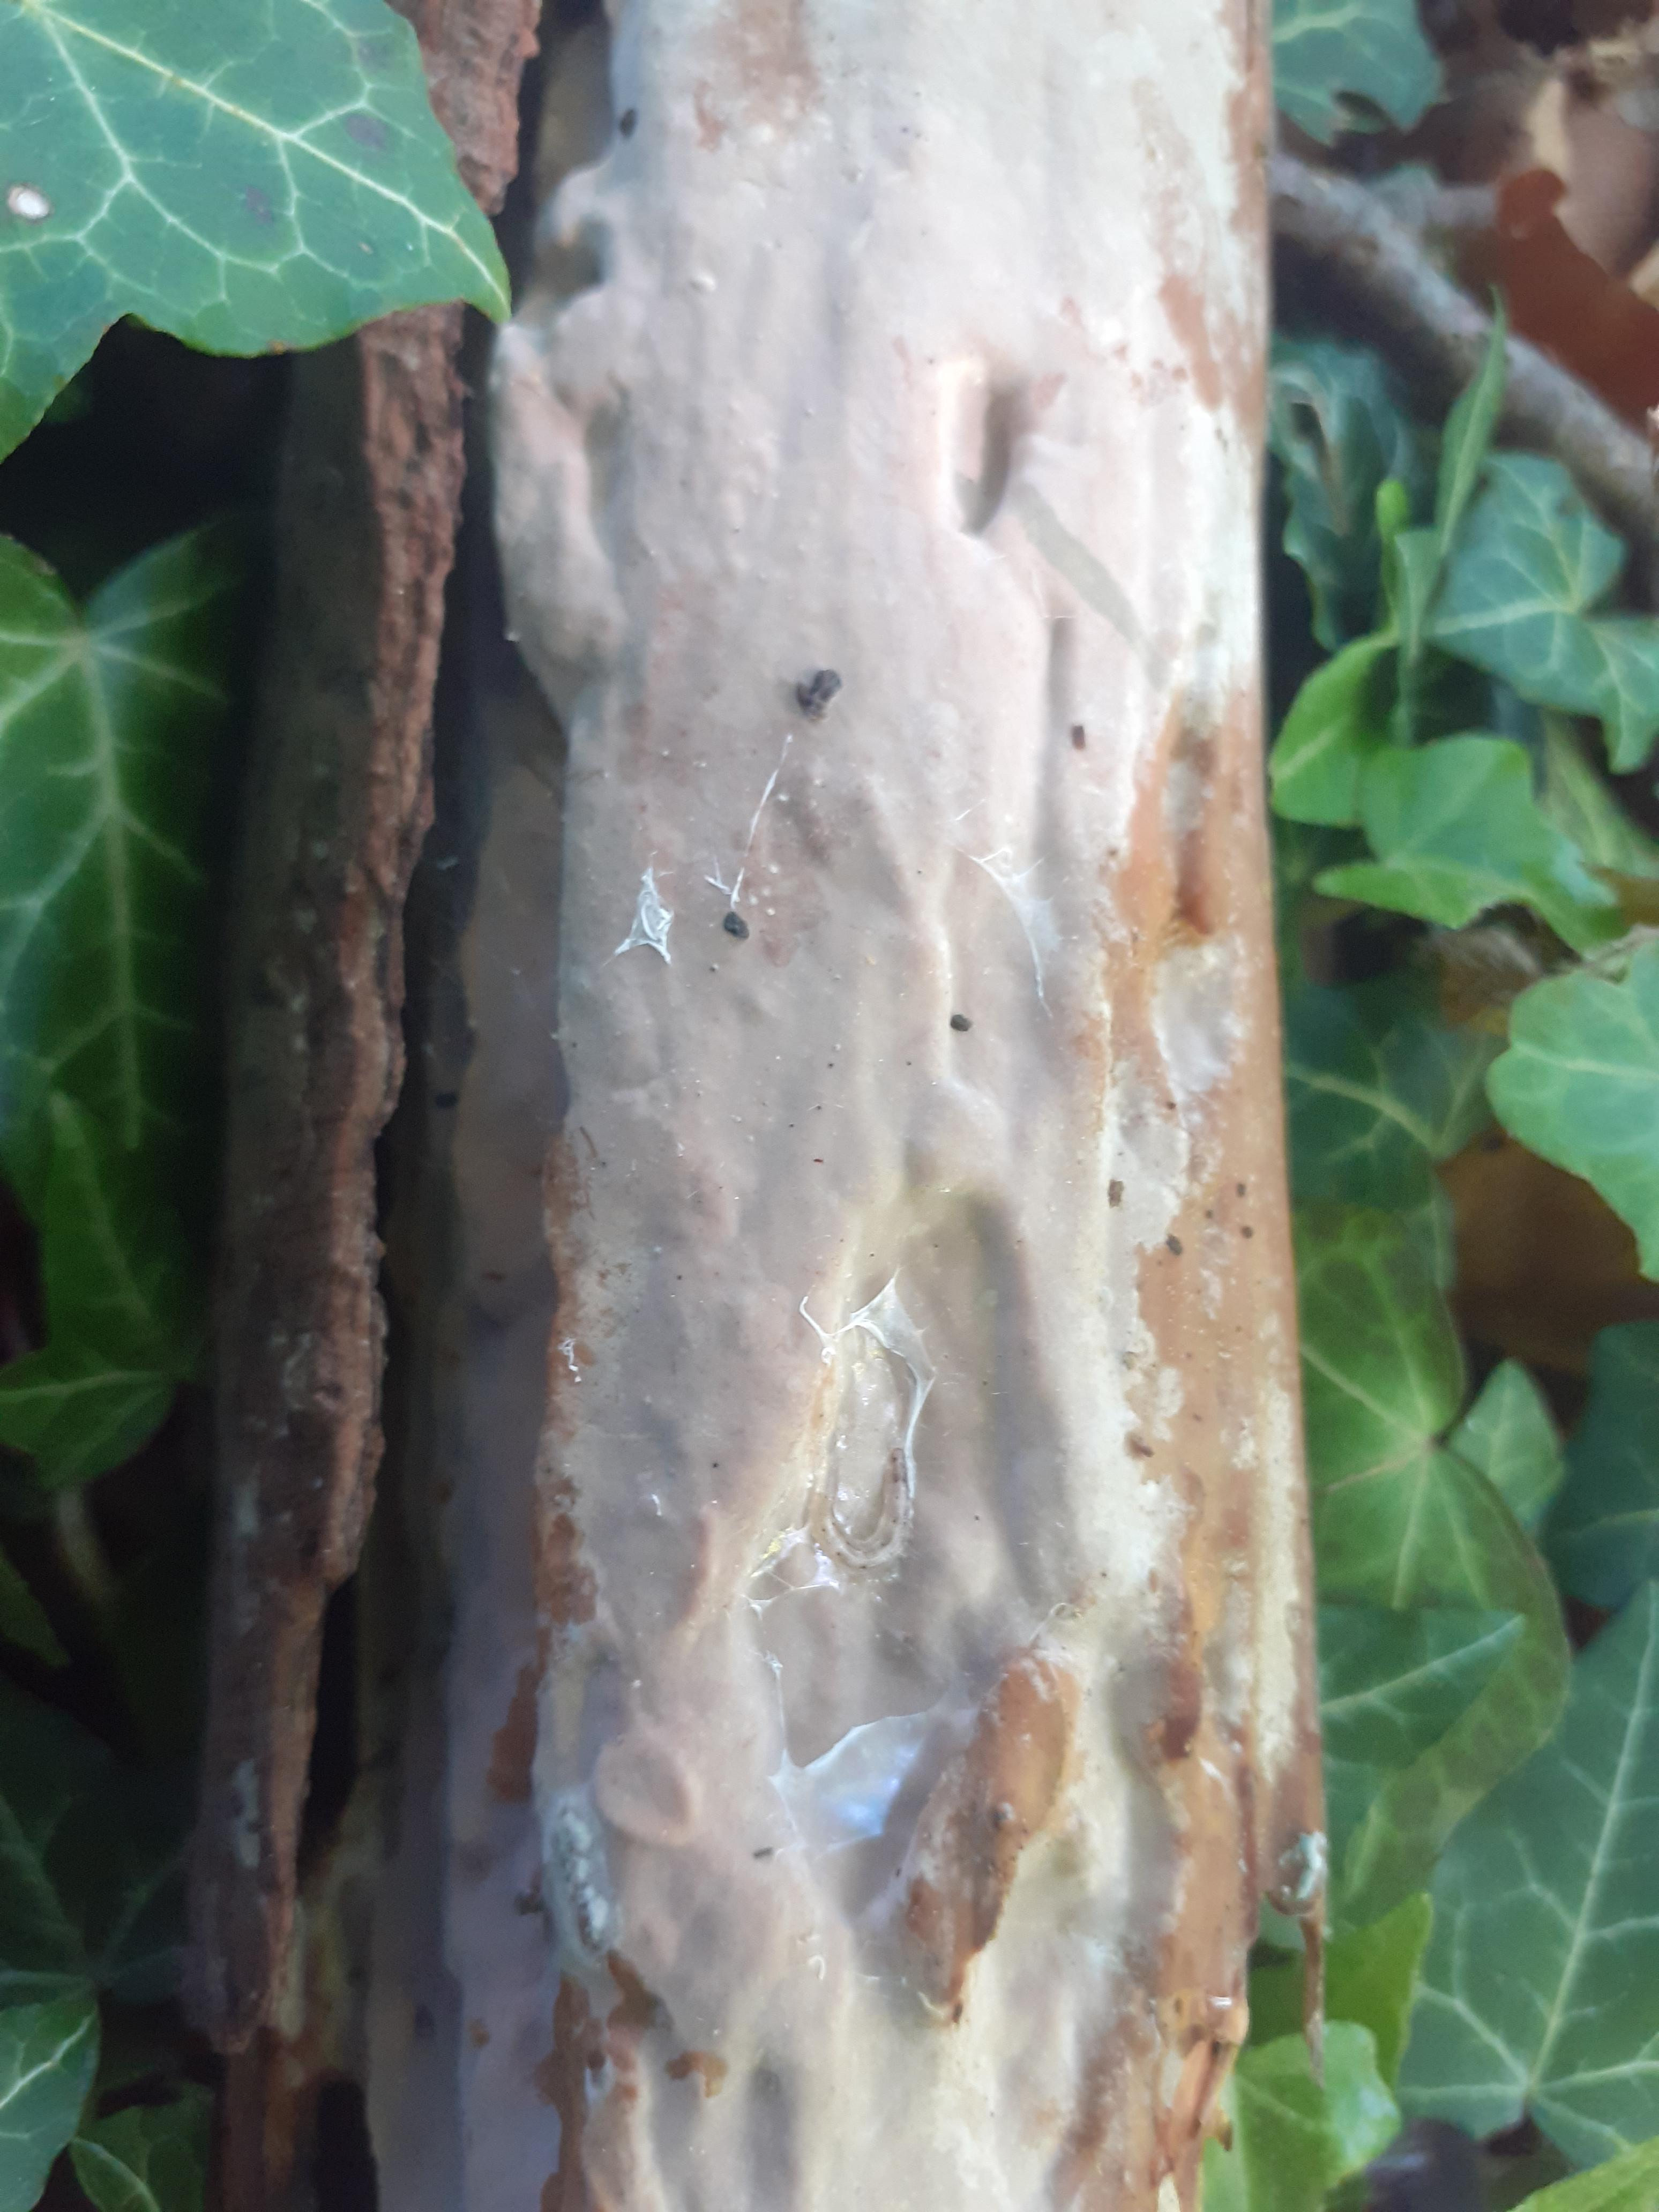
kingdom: Fungi
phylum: Basidiomycota
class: Agaricomycetes
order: Russulales
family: Peniophoraceae
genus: Scytinostroma
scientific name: Scytinostroma hemidichophyticum
